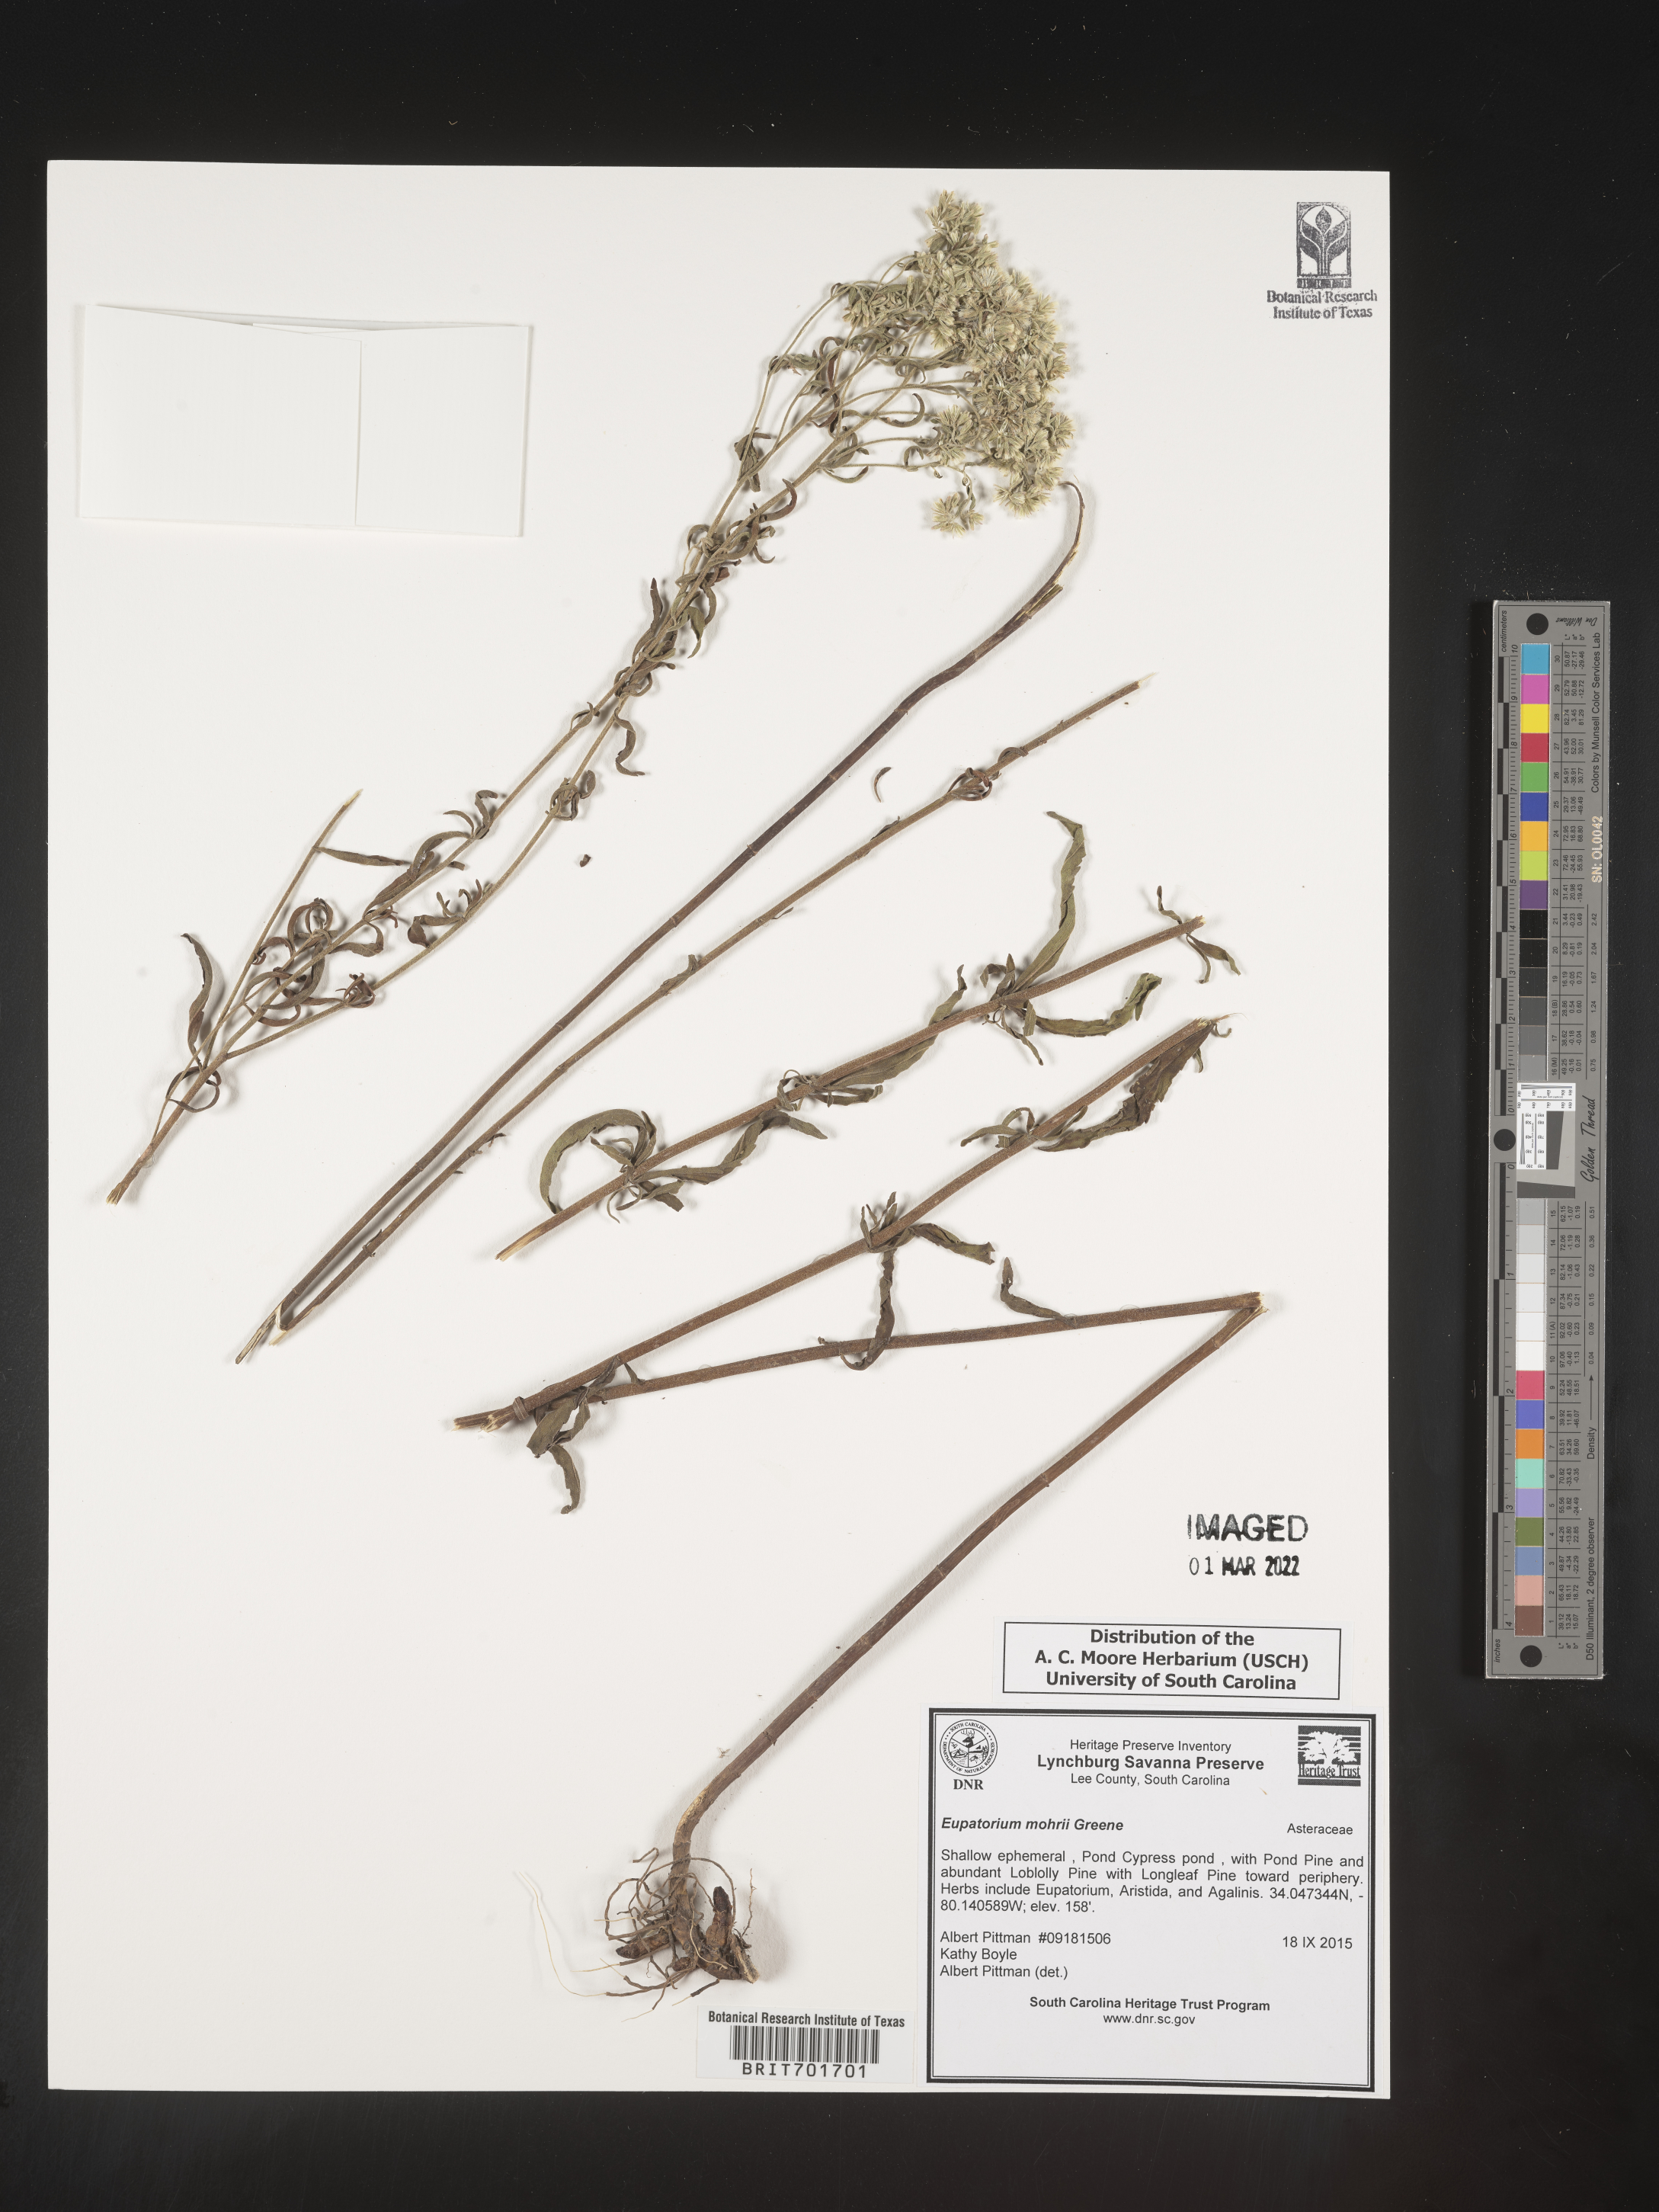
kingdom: Plantae
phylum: Tracheophyta
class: Magnoliopsida
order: Asterales
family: Asteraceae
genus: Eupatorium
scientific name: Eupatorium mohrii
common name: Mohr's thoroughwort
